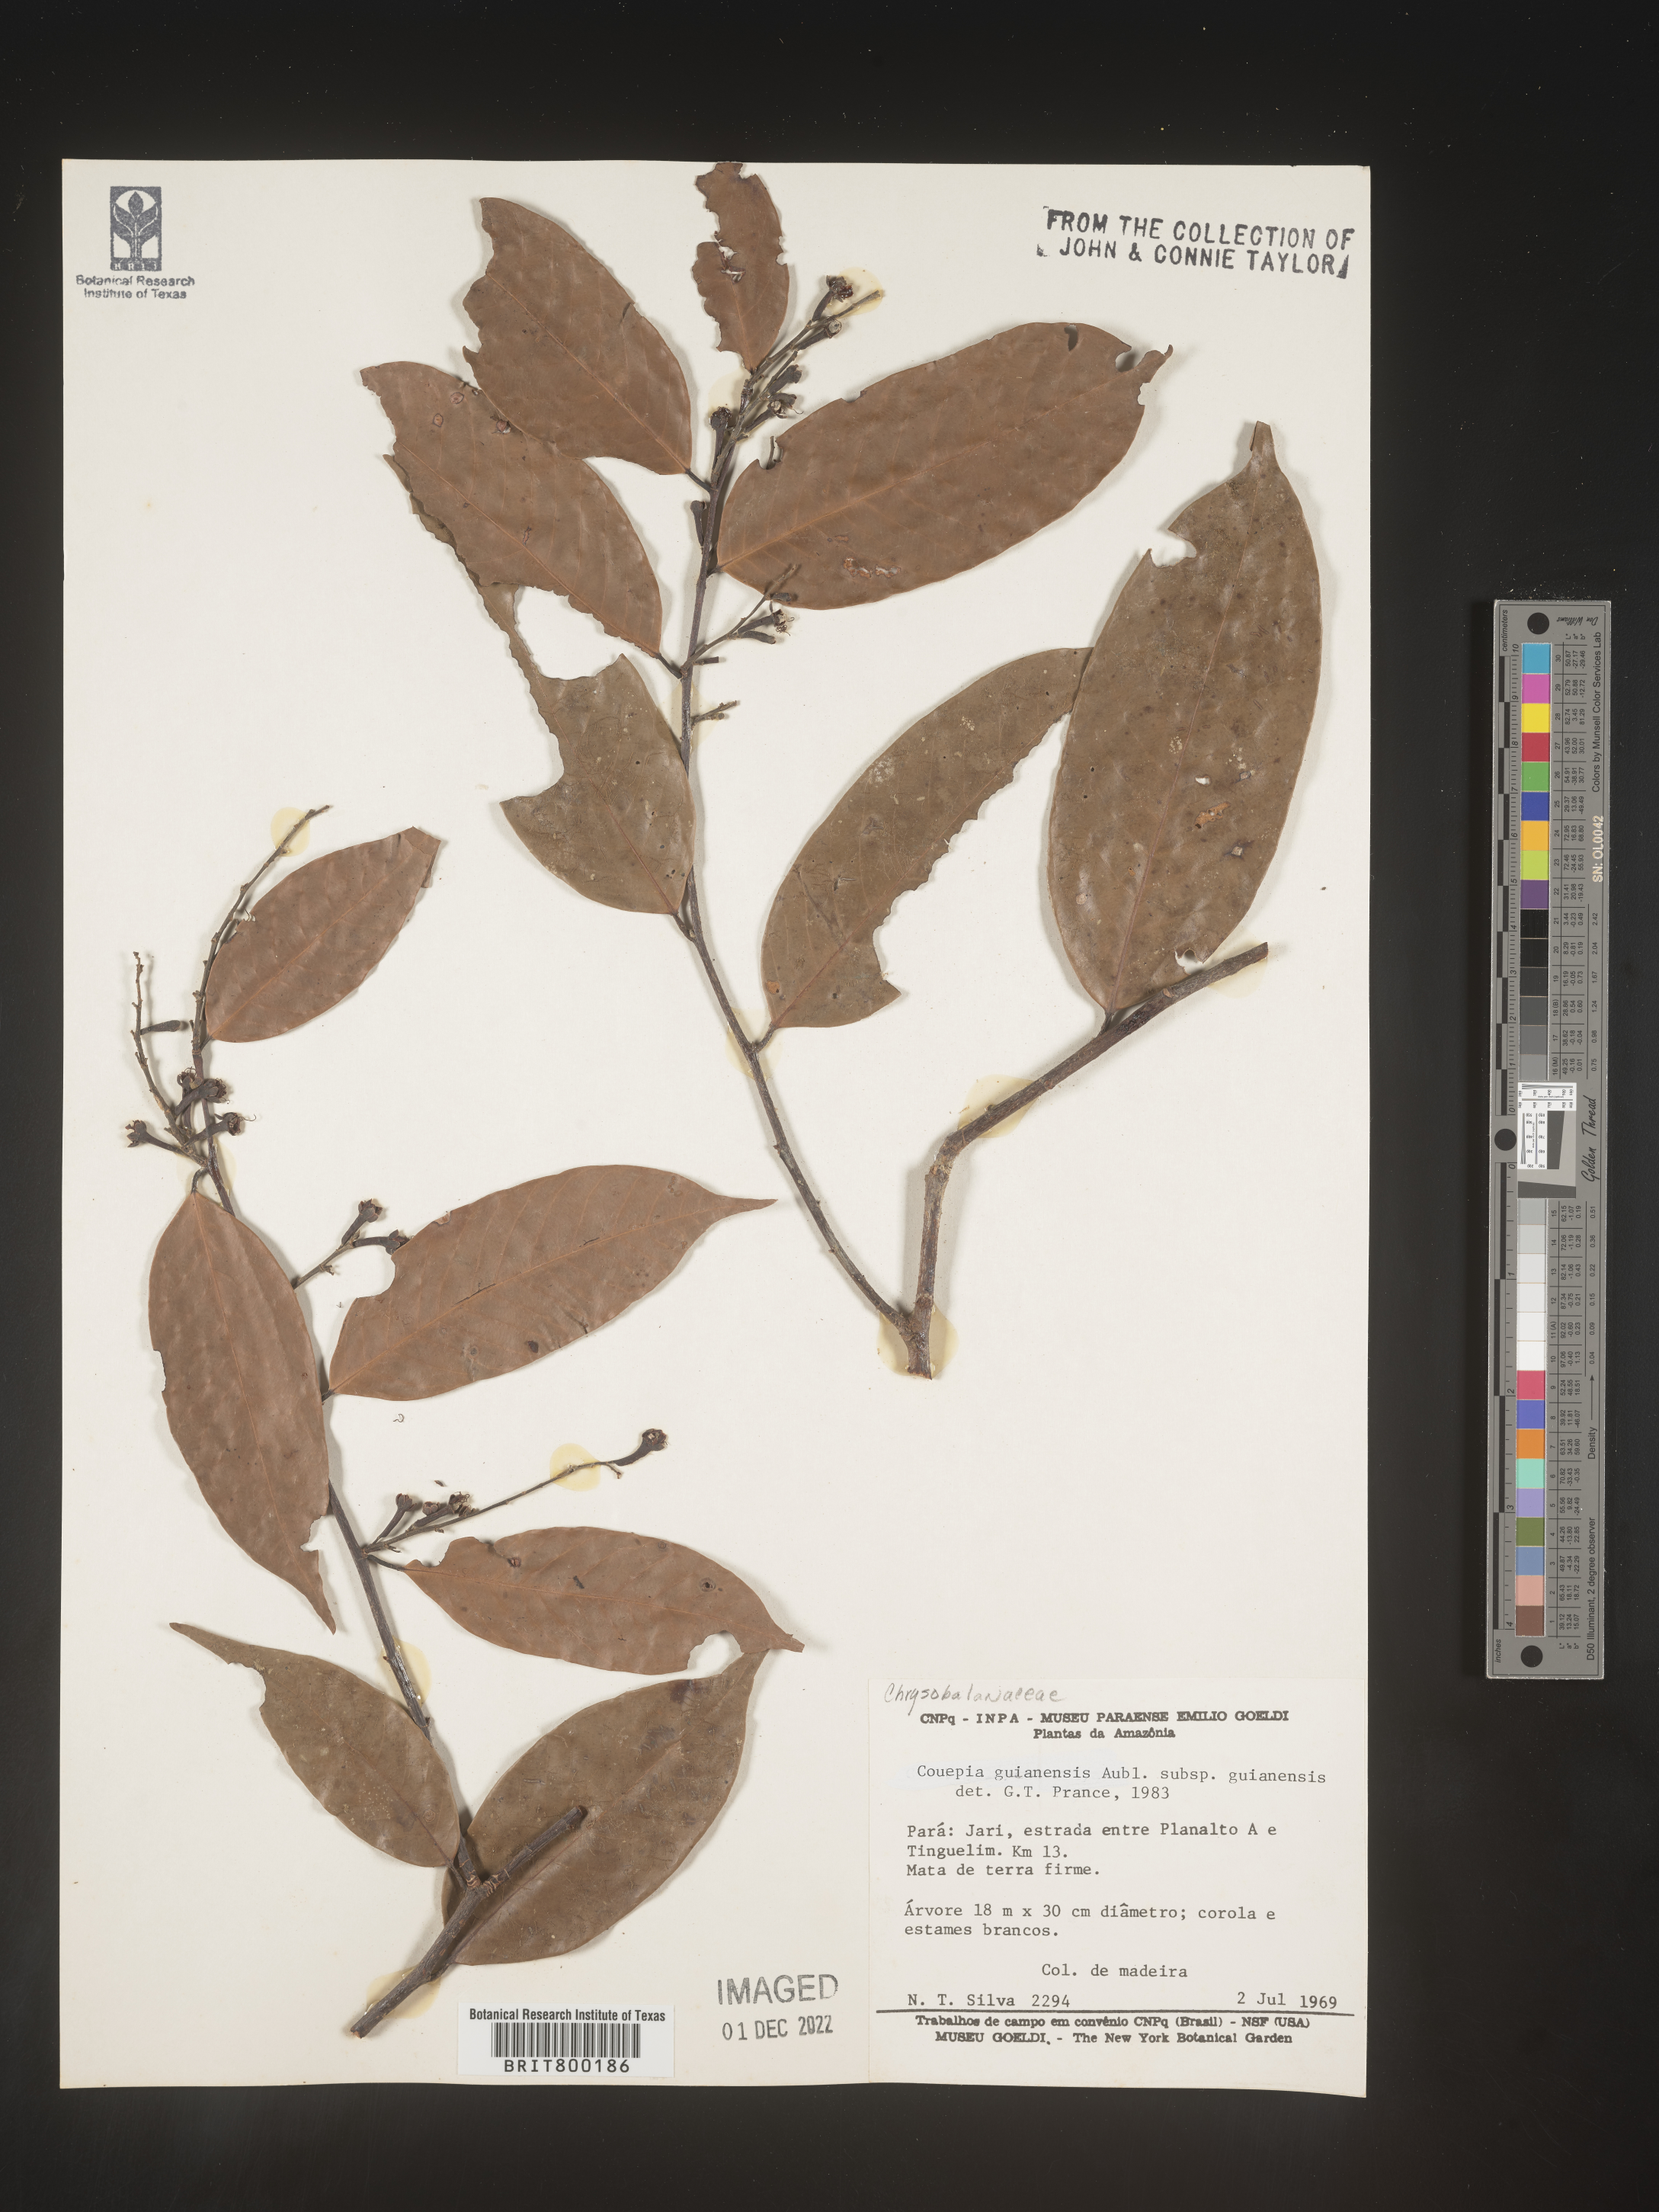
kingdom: Plantae
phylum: Tracheophyta
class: Magnoliopsida
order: Malpighiales
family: Chrysobalanaceae
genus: Couepia
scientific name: Couepia
